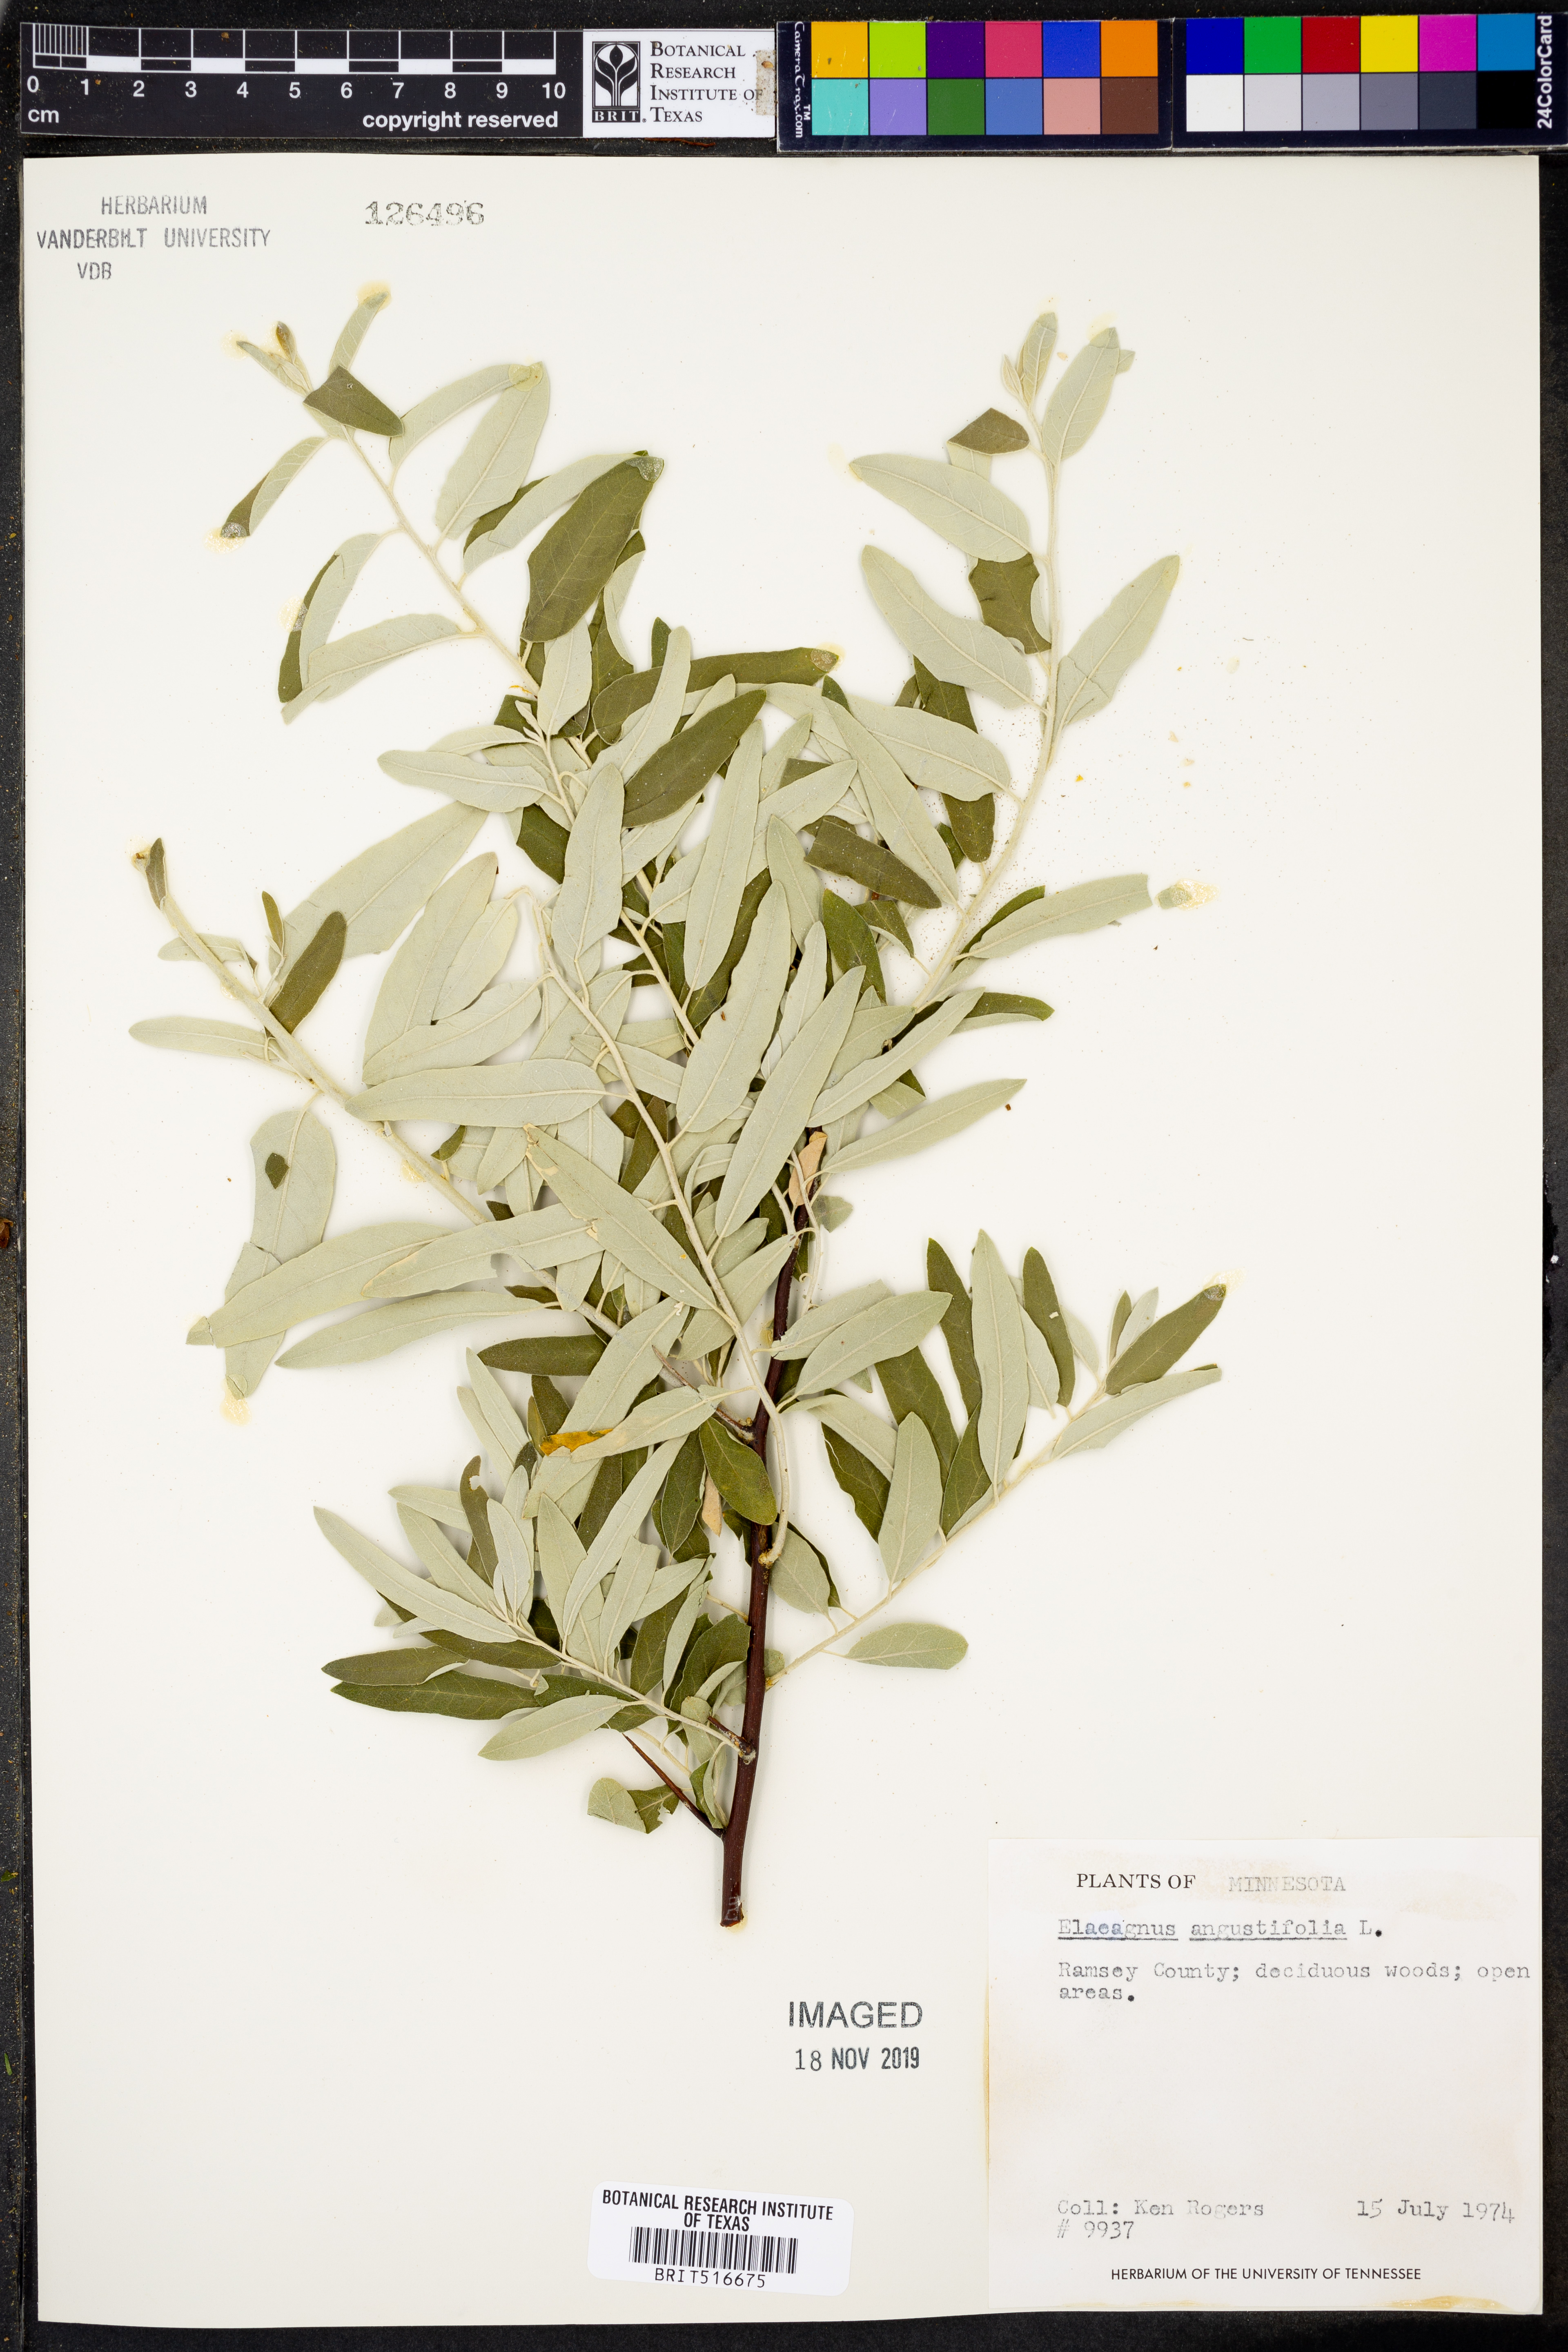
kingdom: Plantae
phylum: Tracheophyta
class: Magnoliopsida
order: Rosales
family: Elaeagnaceae
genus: Elaeagnus
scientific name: Elaeagnus angustifolia
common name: Russian olive
